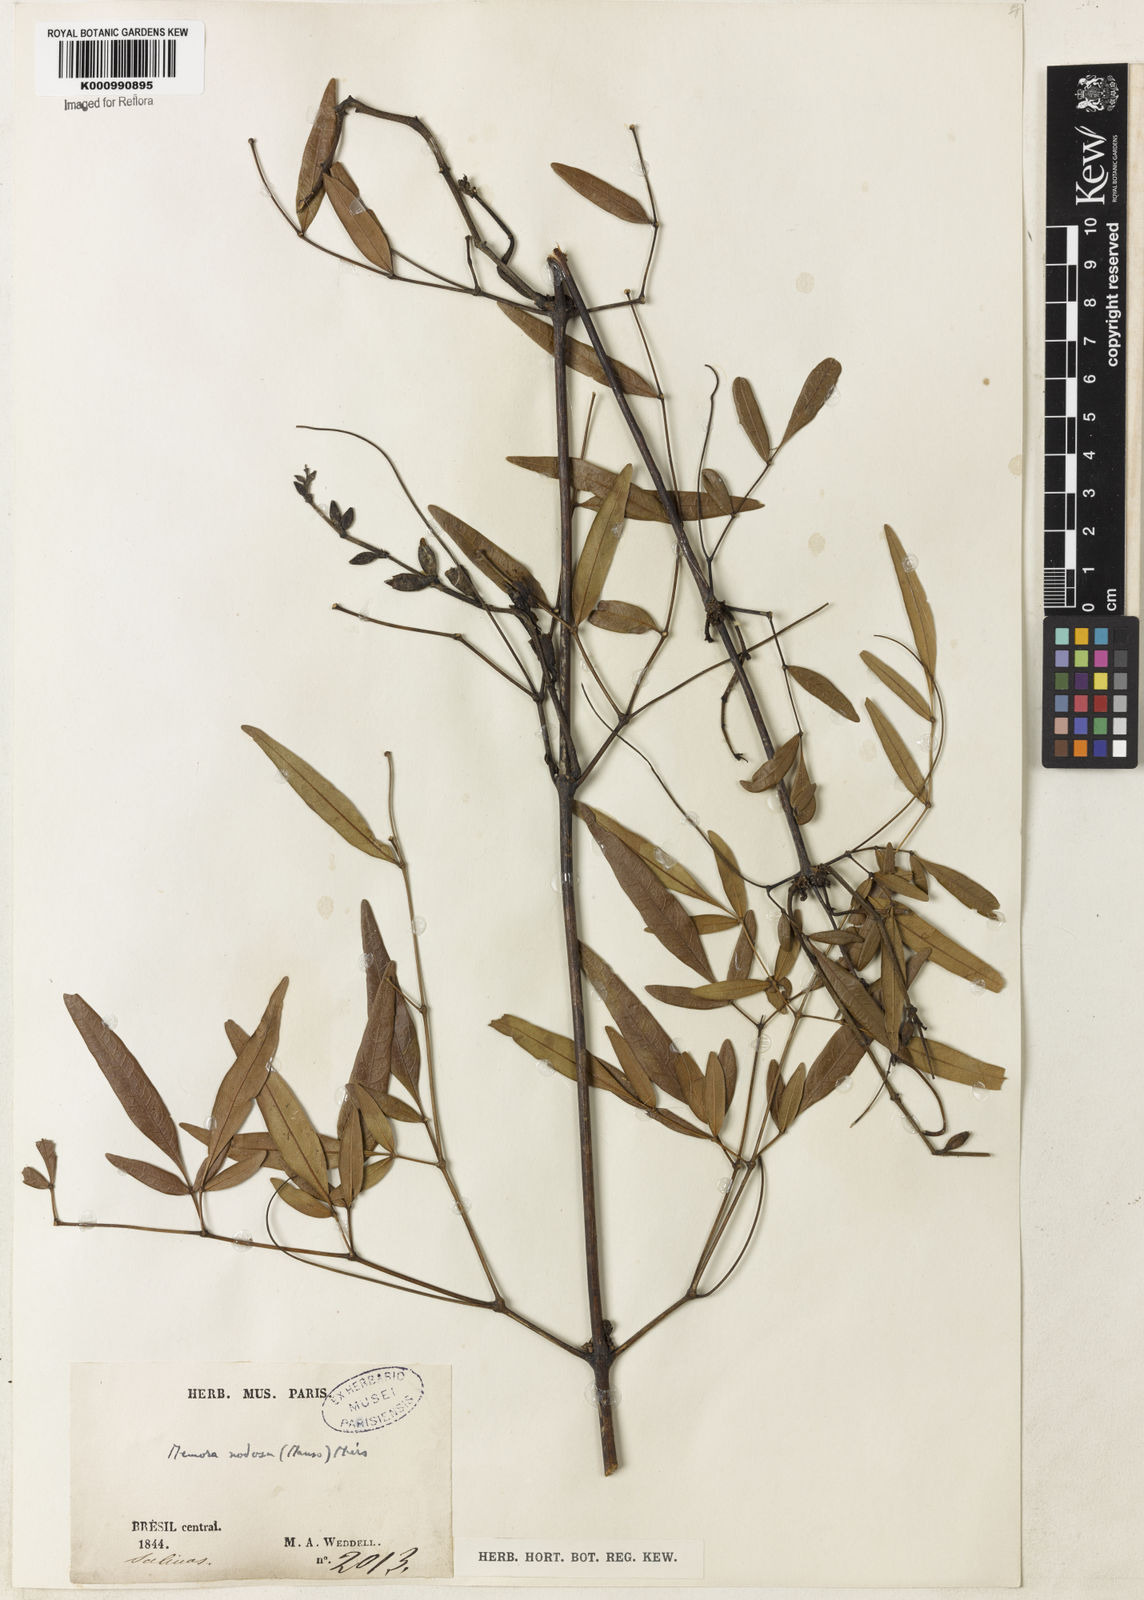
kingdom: Plantae
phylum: Tracheophyta
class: Magnoliopsida
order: Lamiales
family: Bignoniaceae
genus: Adenocalymma
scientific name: Adenocalymma nodosum
